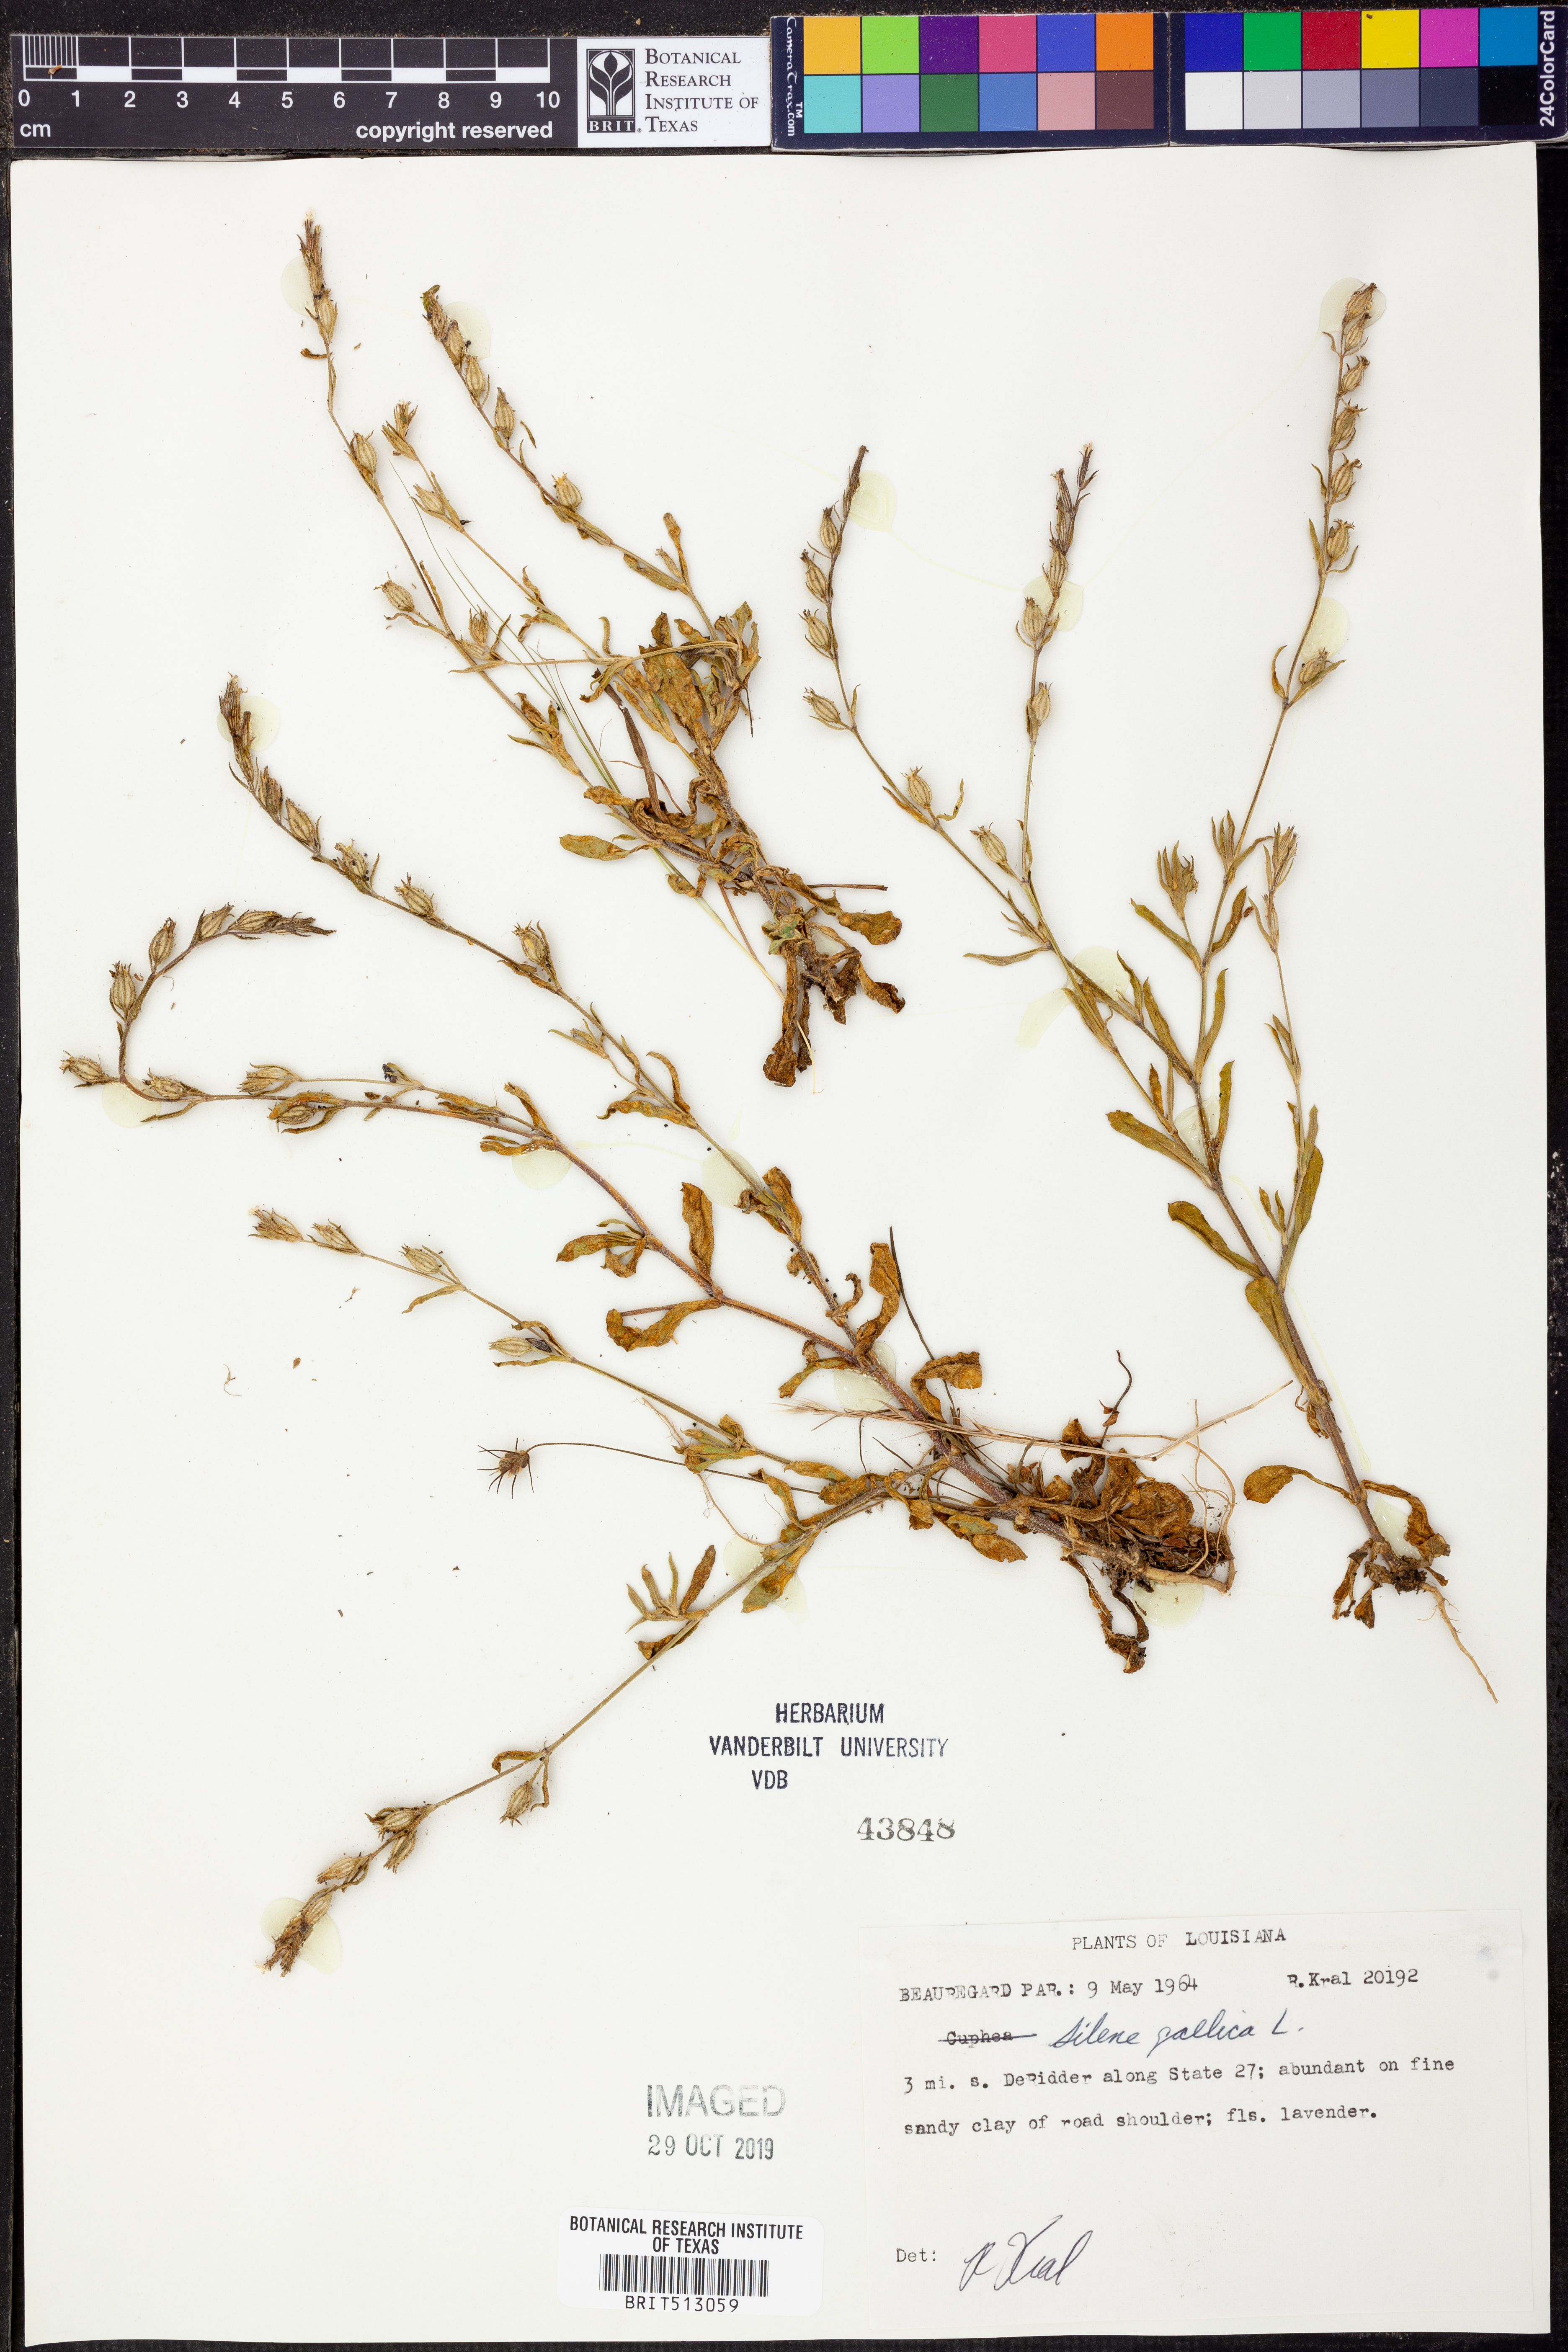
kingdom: Plantae
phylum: Tracheophyta
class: Magnoliopsida
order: Caryophyllales
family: Caryophyllaceae
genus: Silene
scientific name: Silene gallica
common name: Small-flowered catchfly
